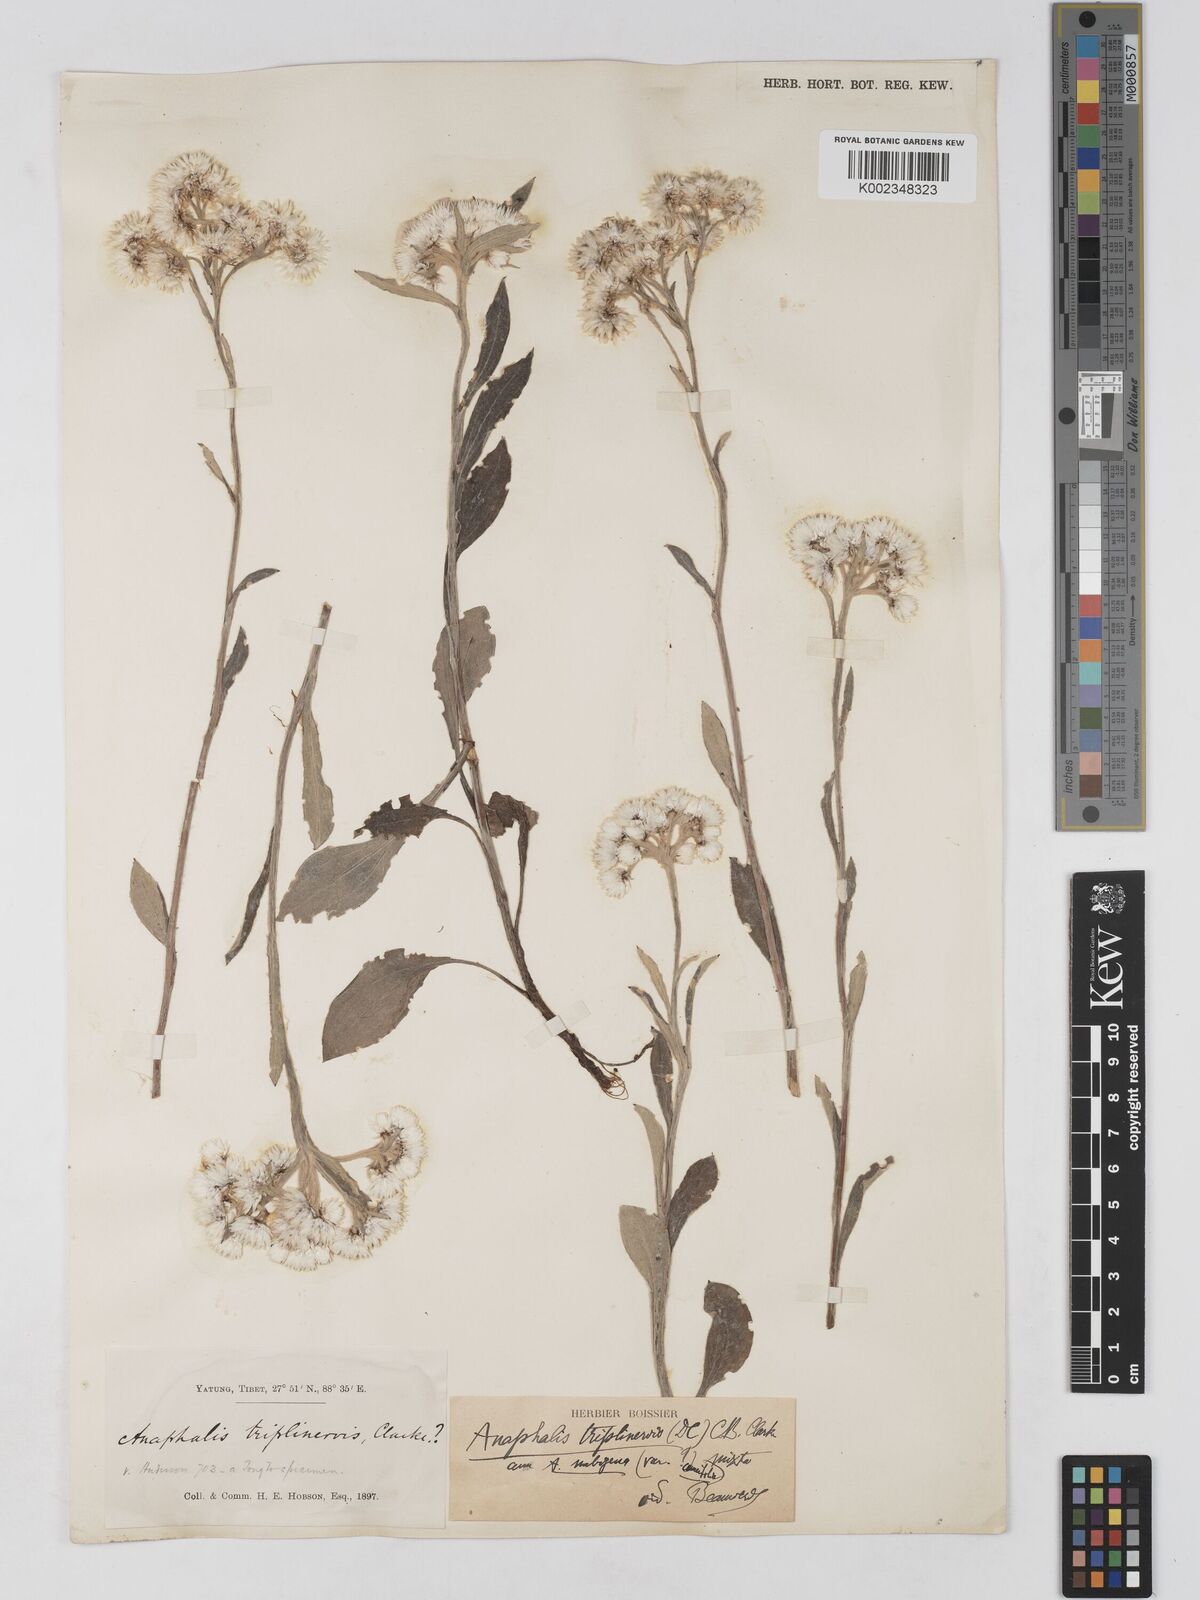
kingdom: Plantae
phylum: Tracheophyta
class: Magnoliopsida
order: Asterales
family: Asteraceae
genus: Anaphalis
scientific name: Anaphalis triplinervis
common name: Pearly everlasting
